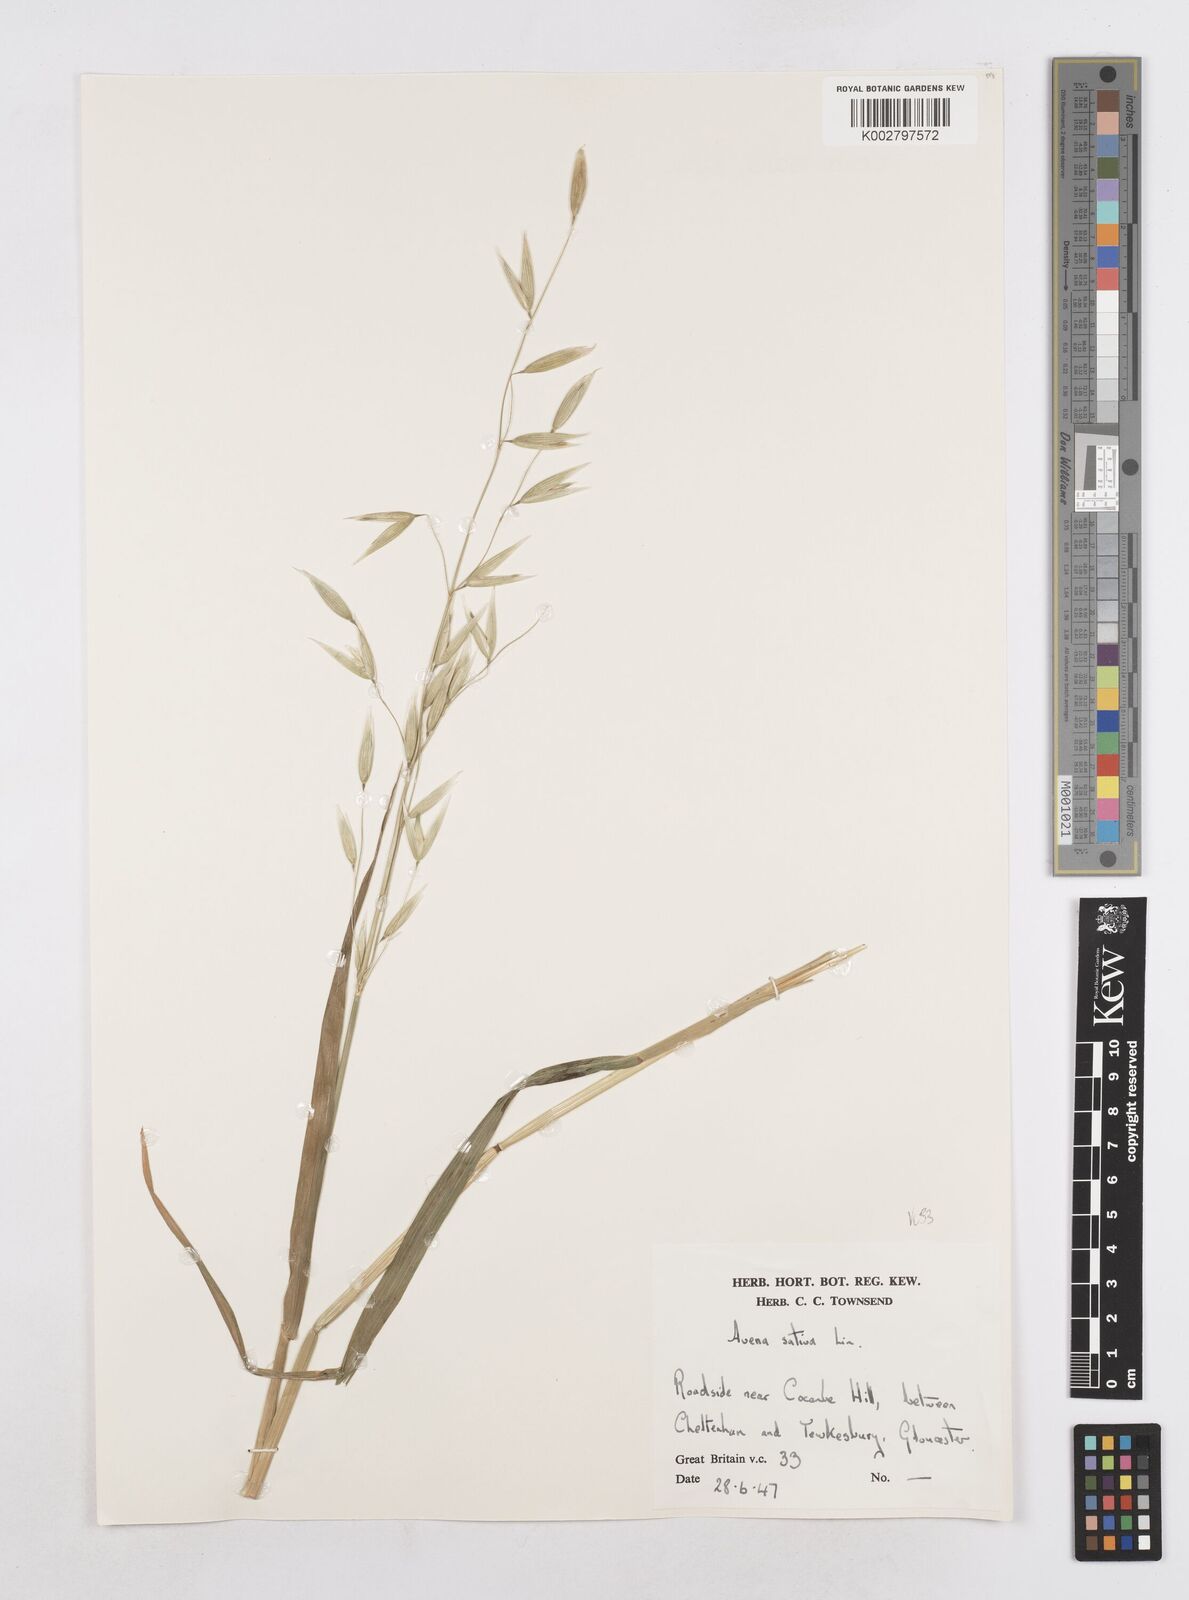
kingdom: Plantae
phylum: Tracheophyta
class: Liliopsida
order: Poales
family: Poaceae
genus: Avena
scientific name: Avena sativa
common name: Oat
